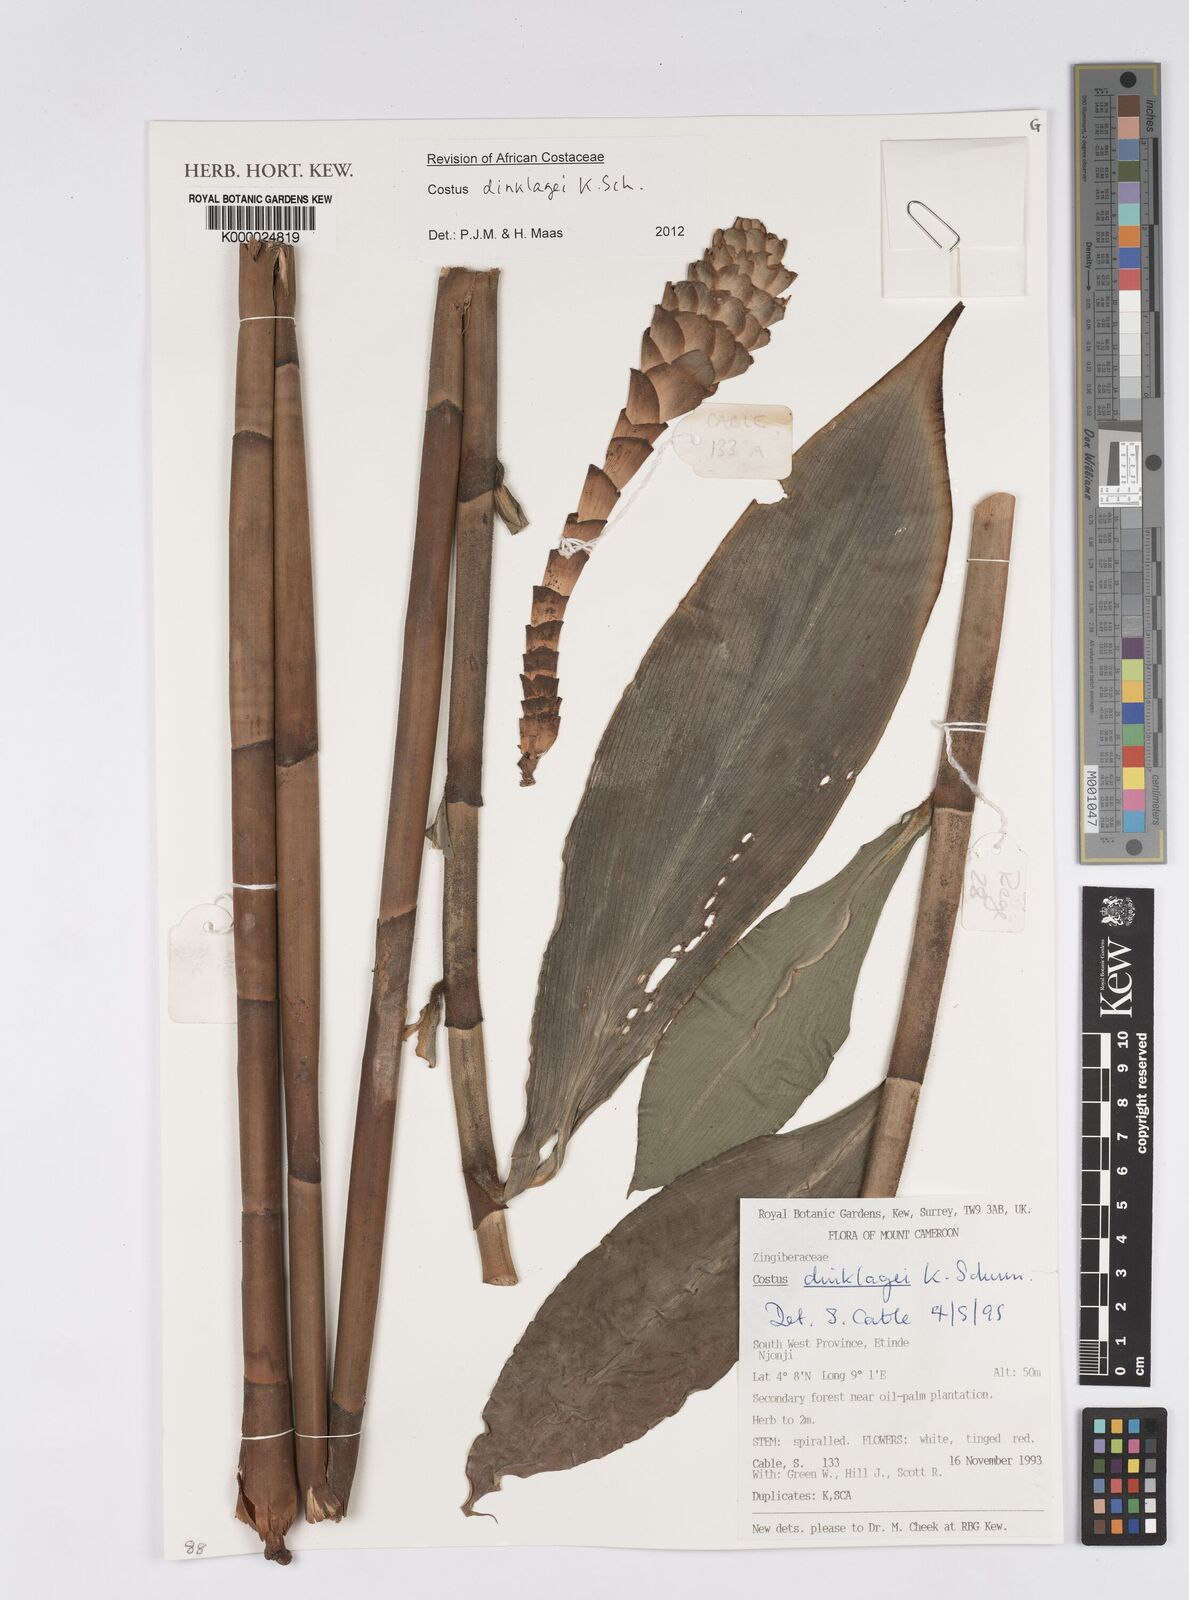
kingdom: Plantae
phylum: Tracheophyta
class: Liliopsida
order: Zingiberales
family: Costaceae
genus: Costus
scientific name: Costus dinklagei
